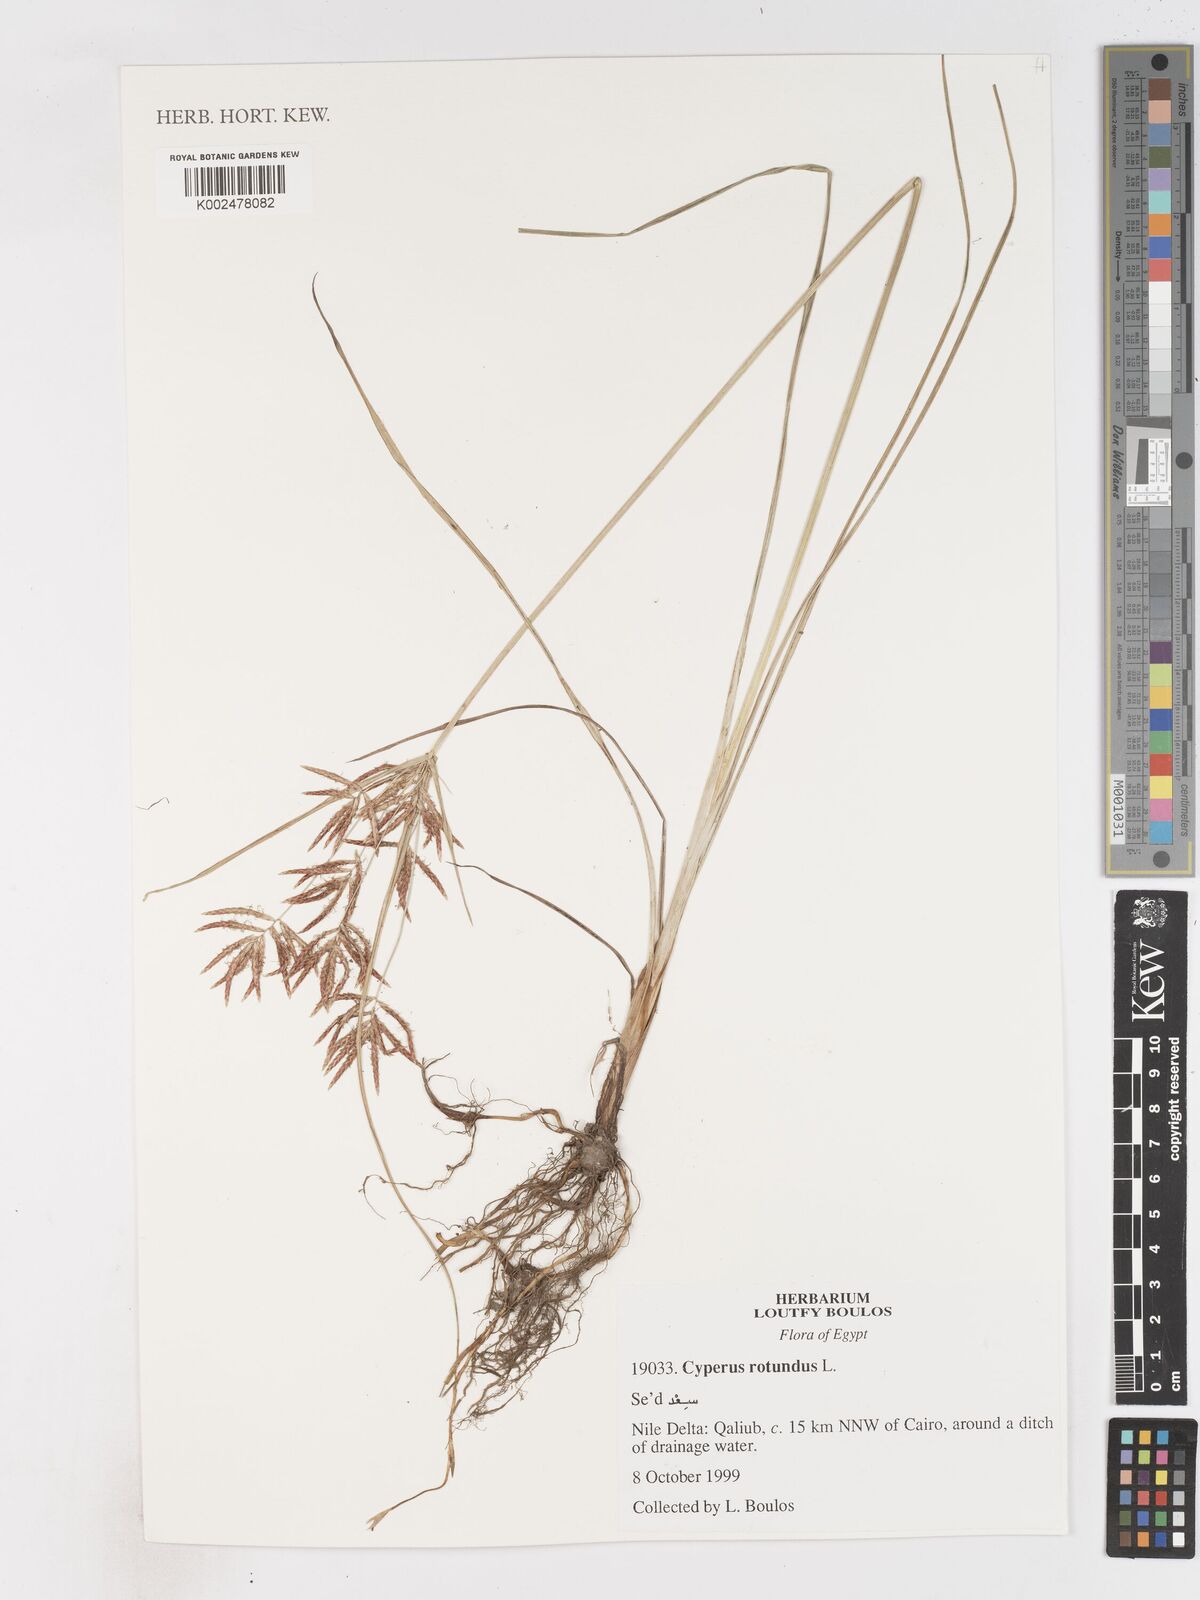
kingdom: Plantae
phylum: Tracheophyta
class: Liliopsida
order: Poales
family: Cyperaceae
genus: Cyperus
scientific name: Cyperus rotundus
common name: Nutgrass
